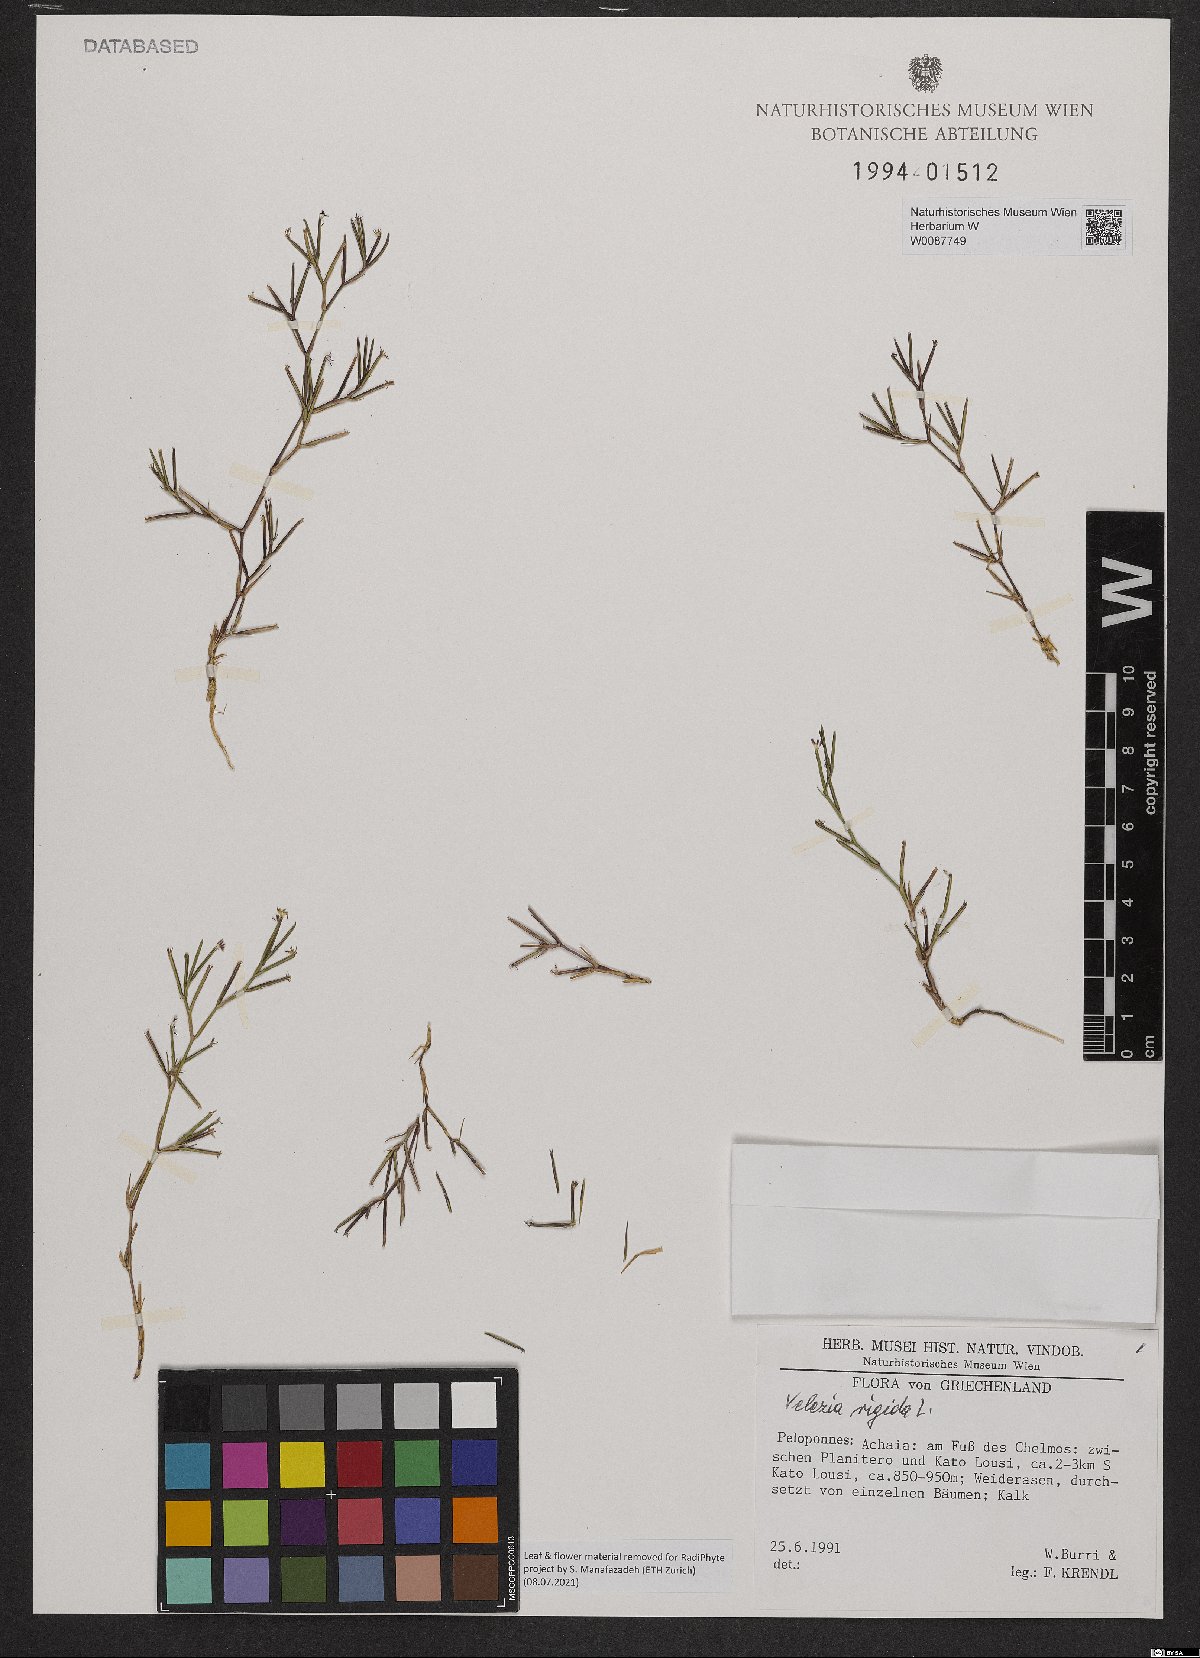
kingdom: Plantae
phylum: Tracheophyta
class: Magnoliopsida
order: Caryophyllales
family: Caryophyllaceae
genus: Dianthus
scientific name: Dianthus nudiflorus
